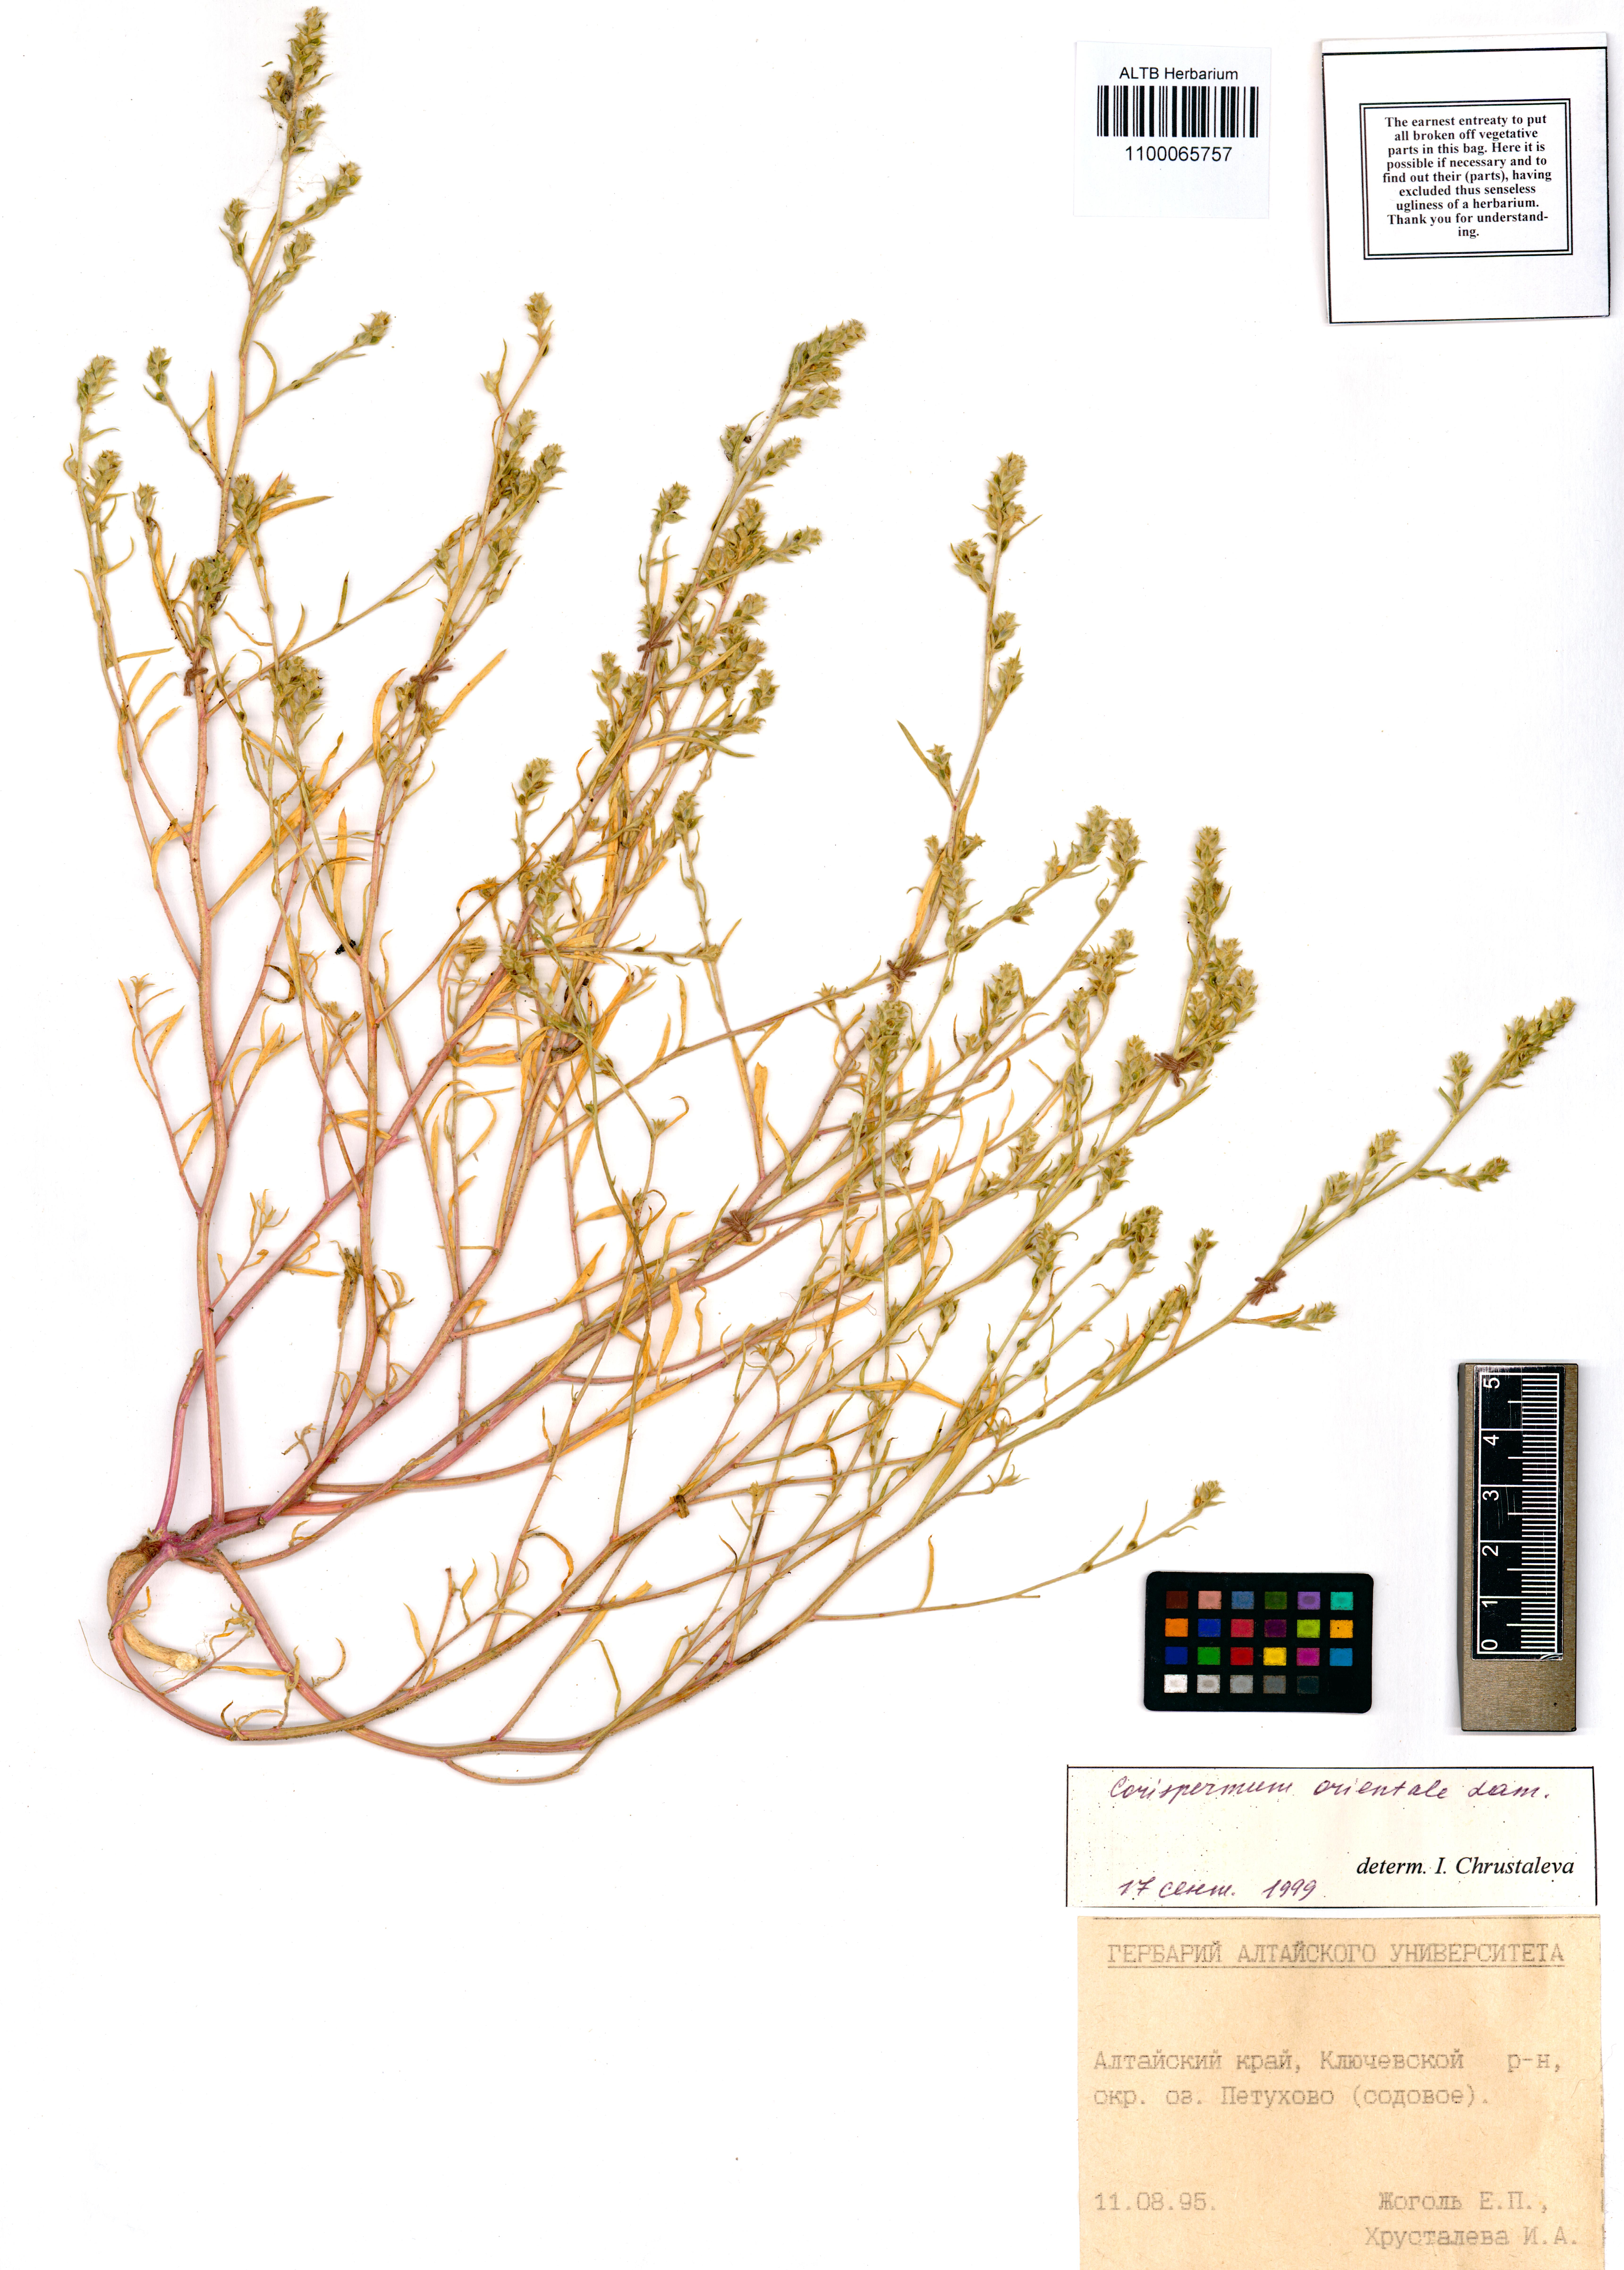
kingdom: Plantae
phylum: Tracheophyta
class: Magnoliopsida
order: Caryophyllales
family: Amaranthaceae
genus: Corispermum
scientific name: Corispermum aralocaspicum
